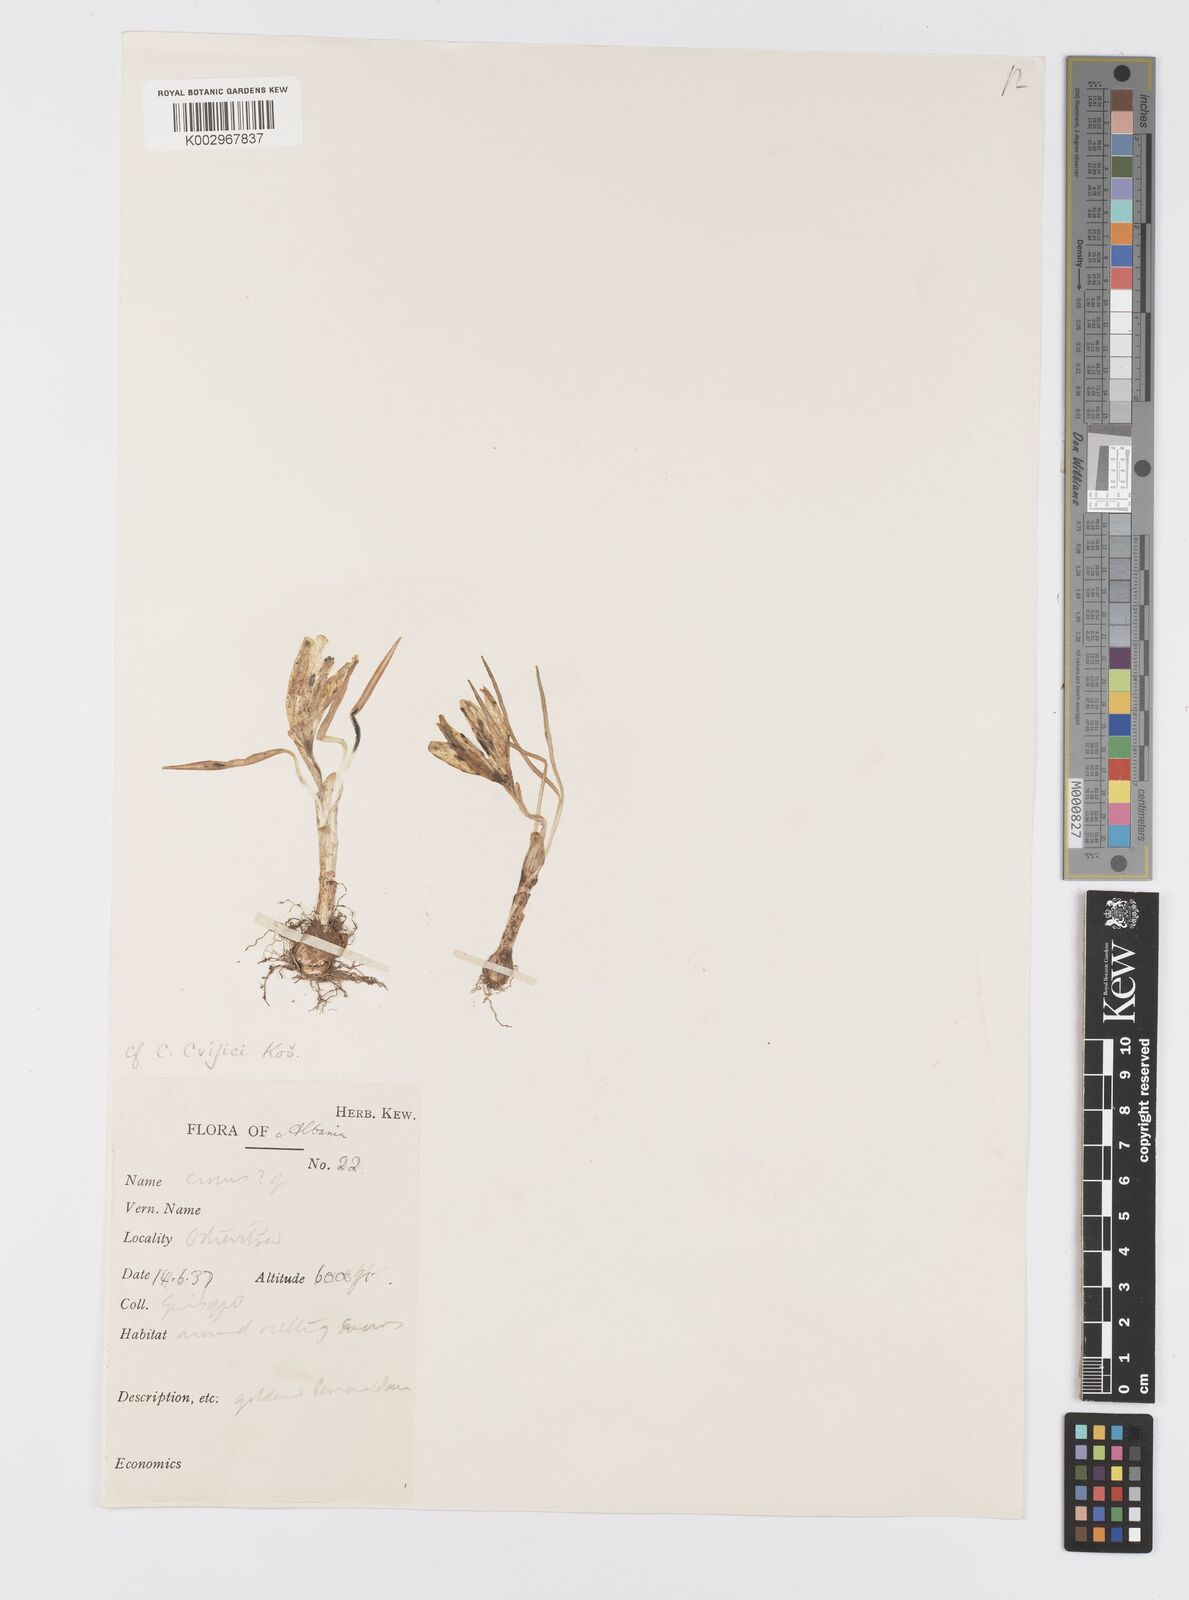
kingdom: Plantae
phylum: Tracheophyta
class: Liliopsida
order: Asparagales
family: Iridaceae
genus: Crocus
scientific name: Crocus cvijicii
